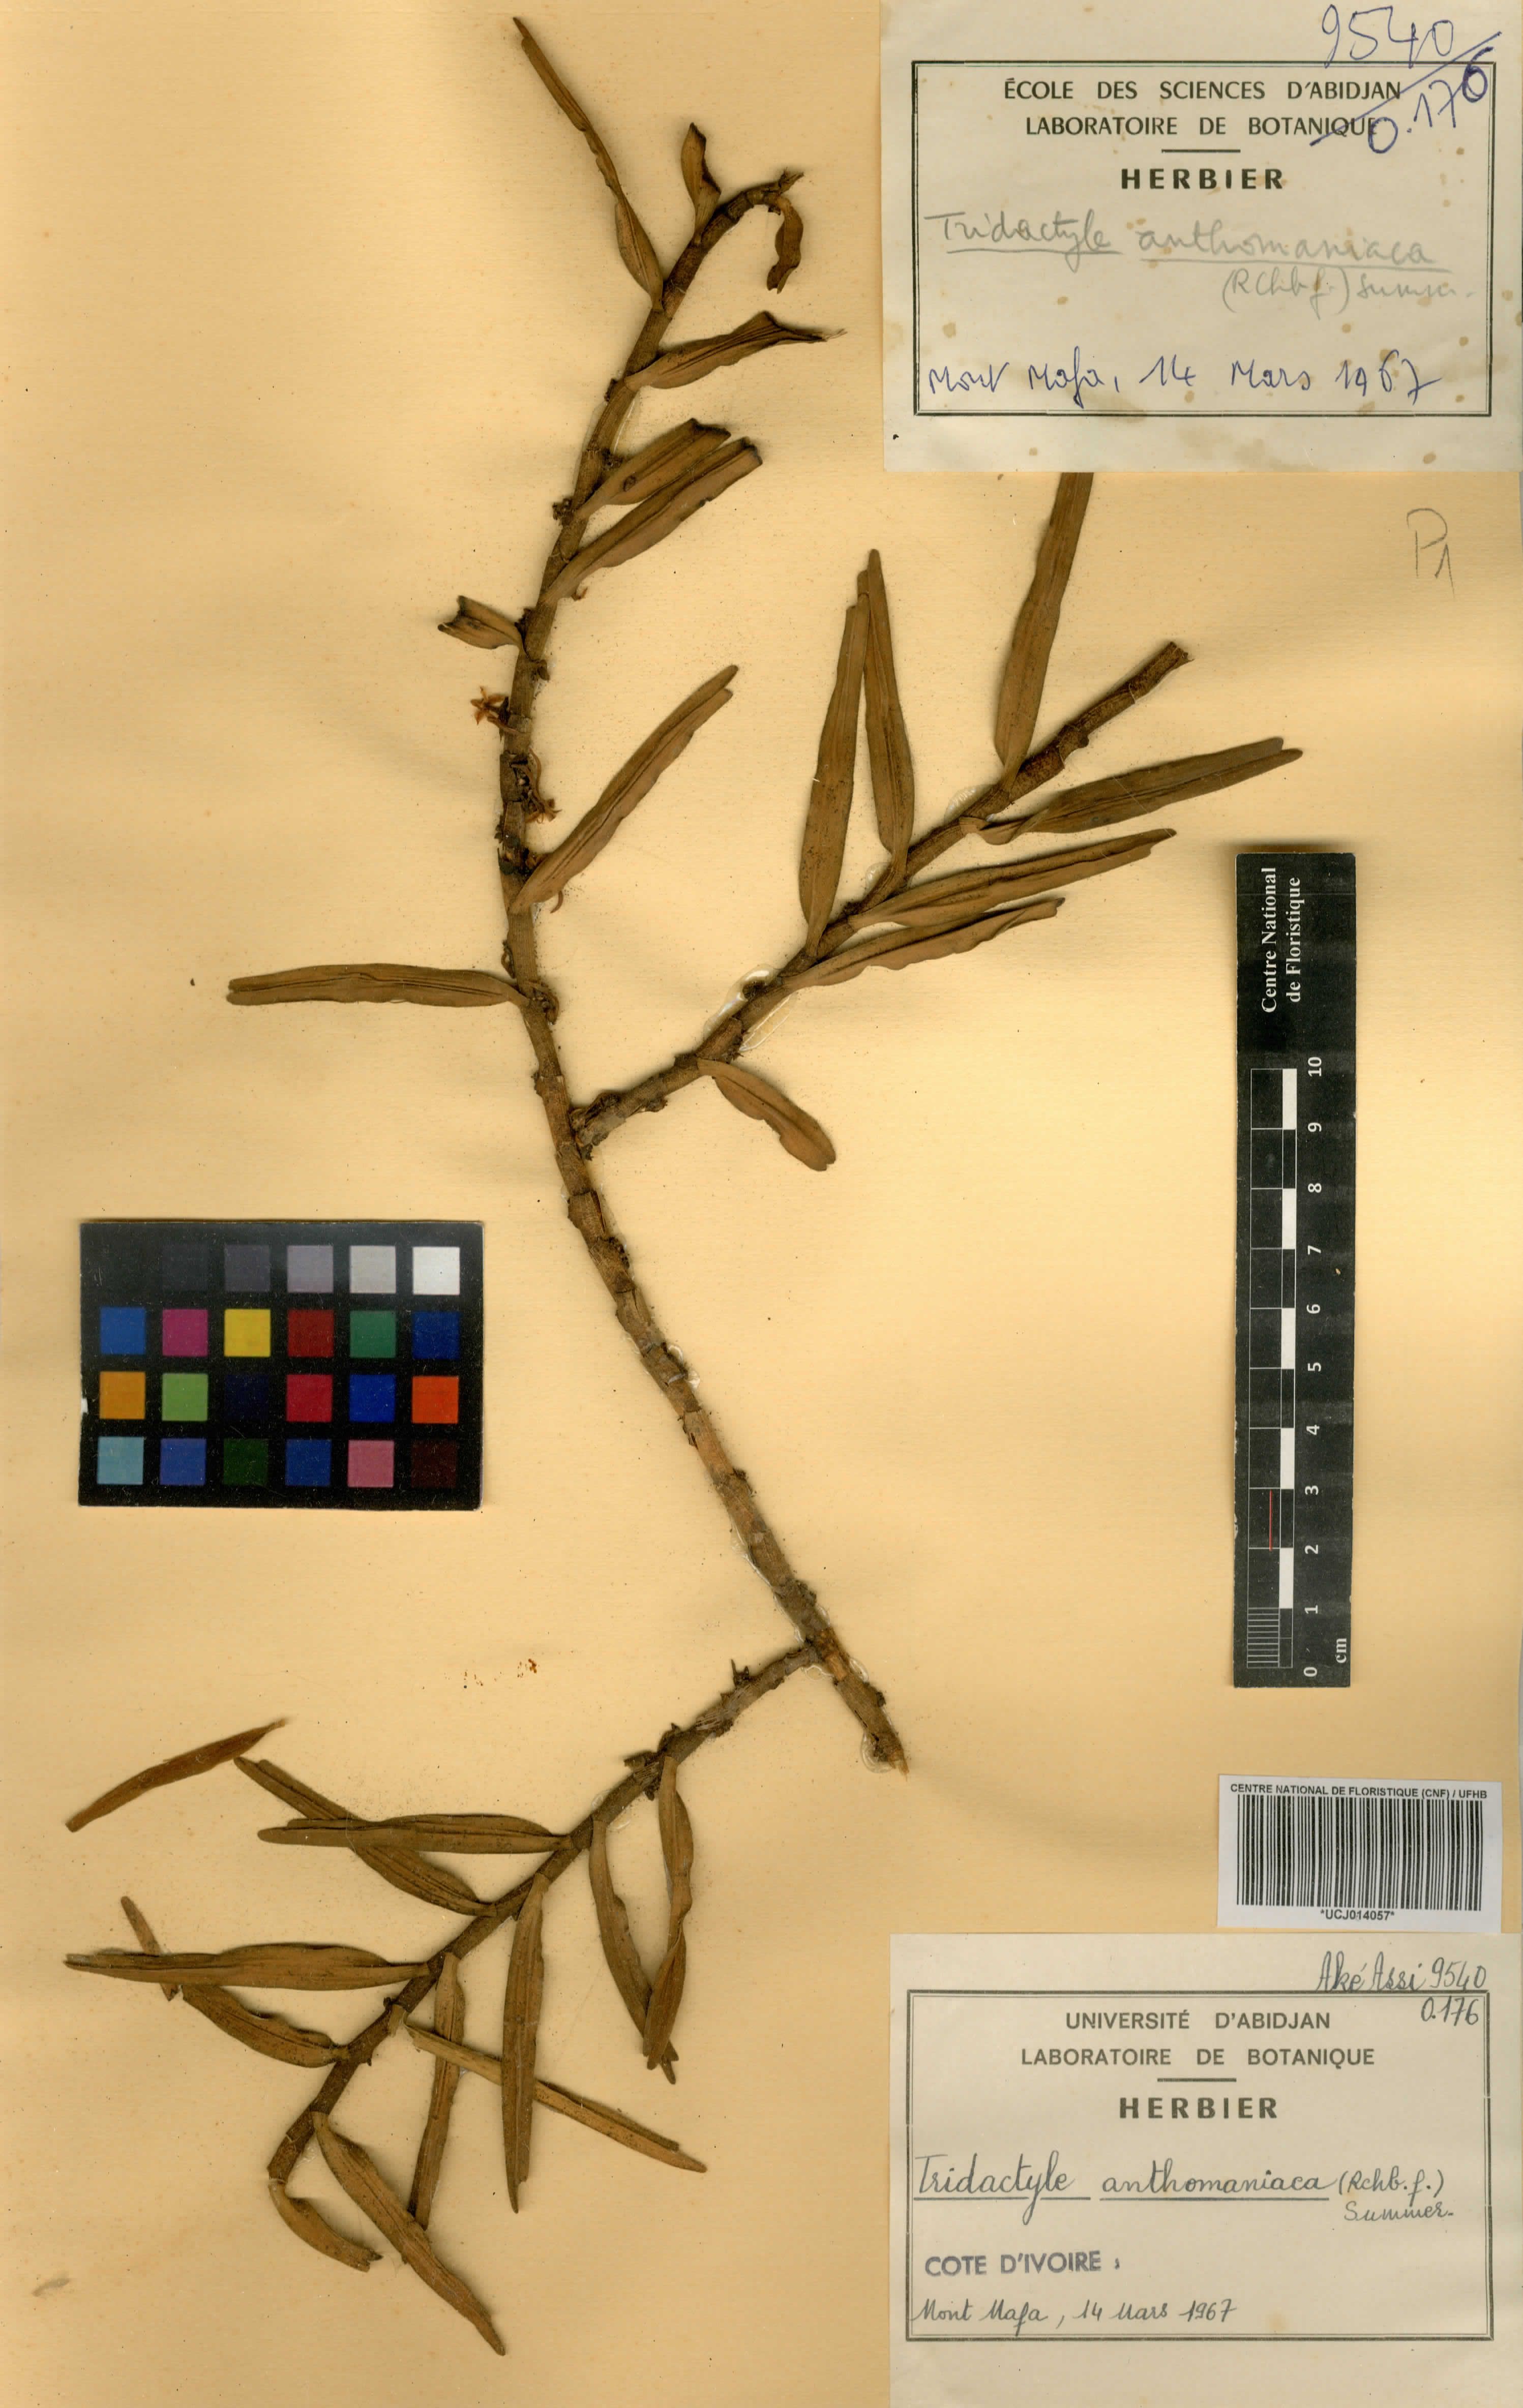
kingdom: Plantae
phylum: Tracheophyta
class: Liliopsida
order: Asparagales
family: Orchidaceae
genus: Tridactyle
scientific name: Tridactyle anthomaniaca
